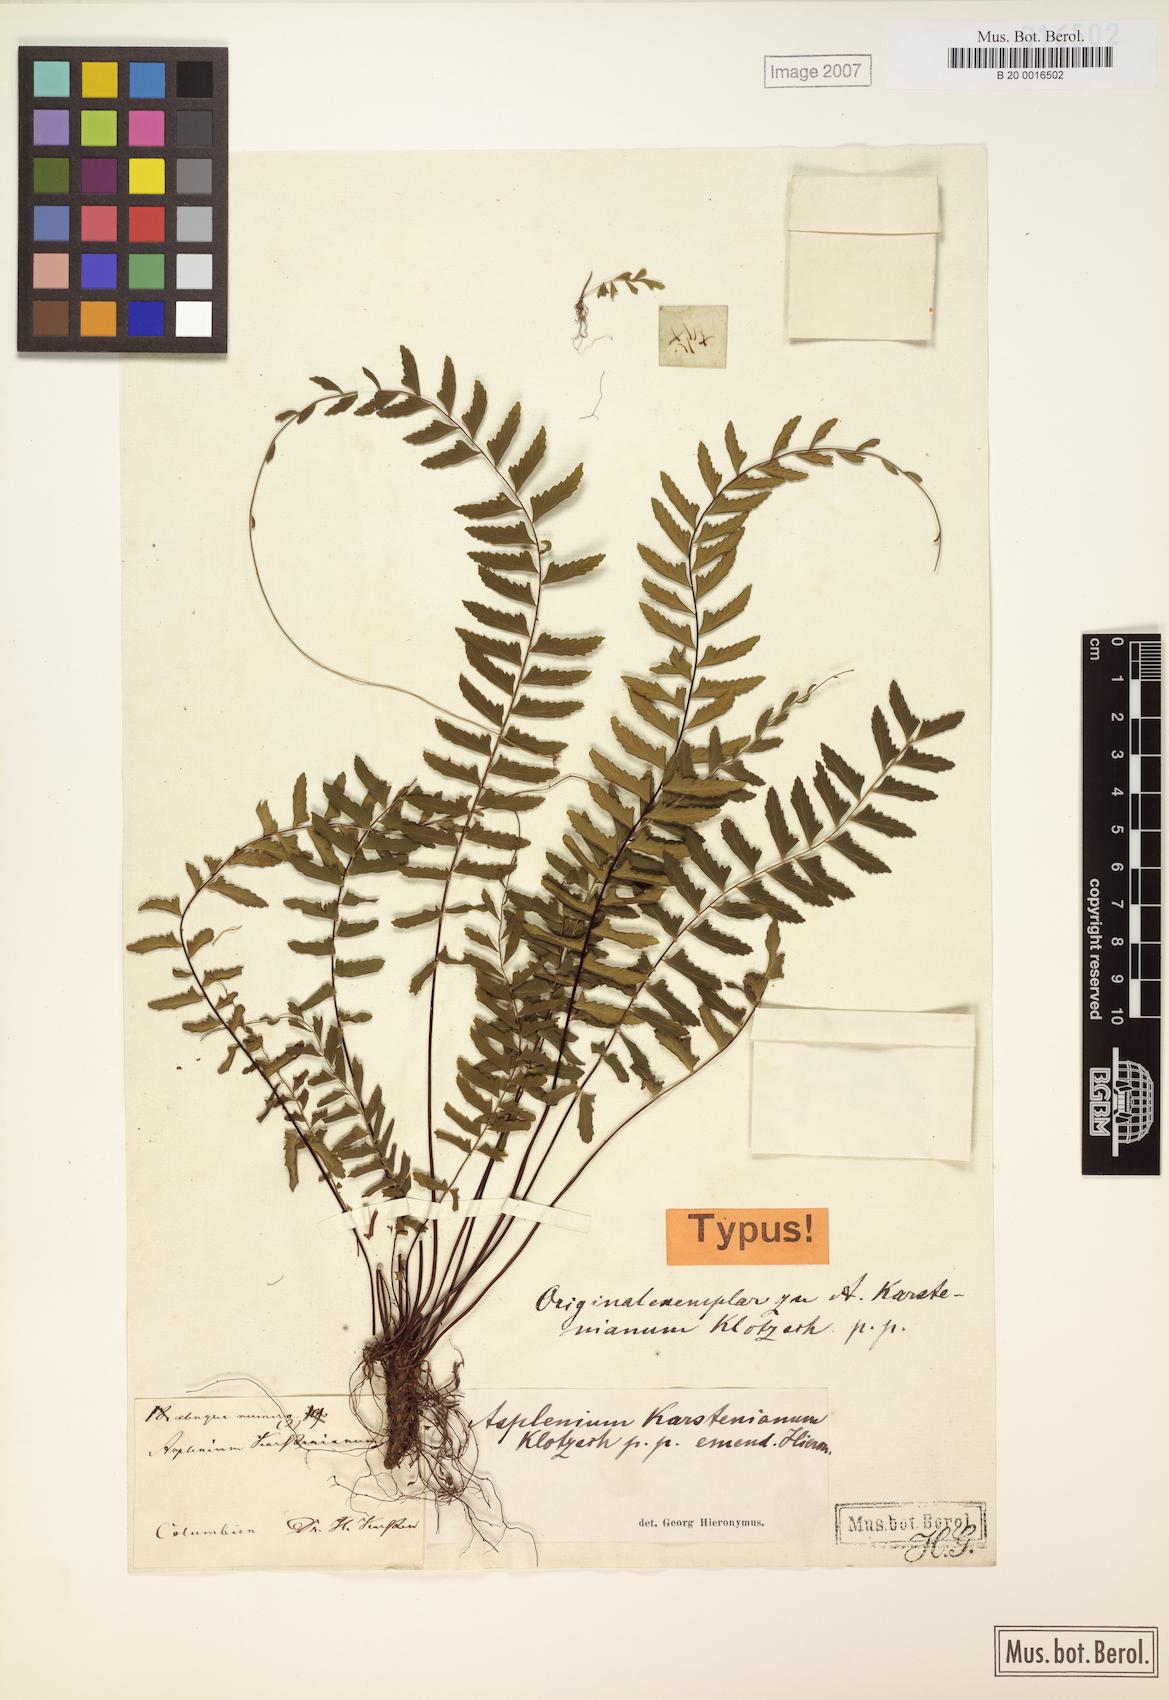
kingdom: Plantae
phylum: Tracheophyta
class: Polypodiopsida
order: Polypodiales
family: Aspleniaceae
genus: Asplenium
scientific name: Asplenium cirrhatum
